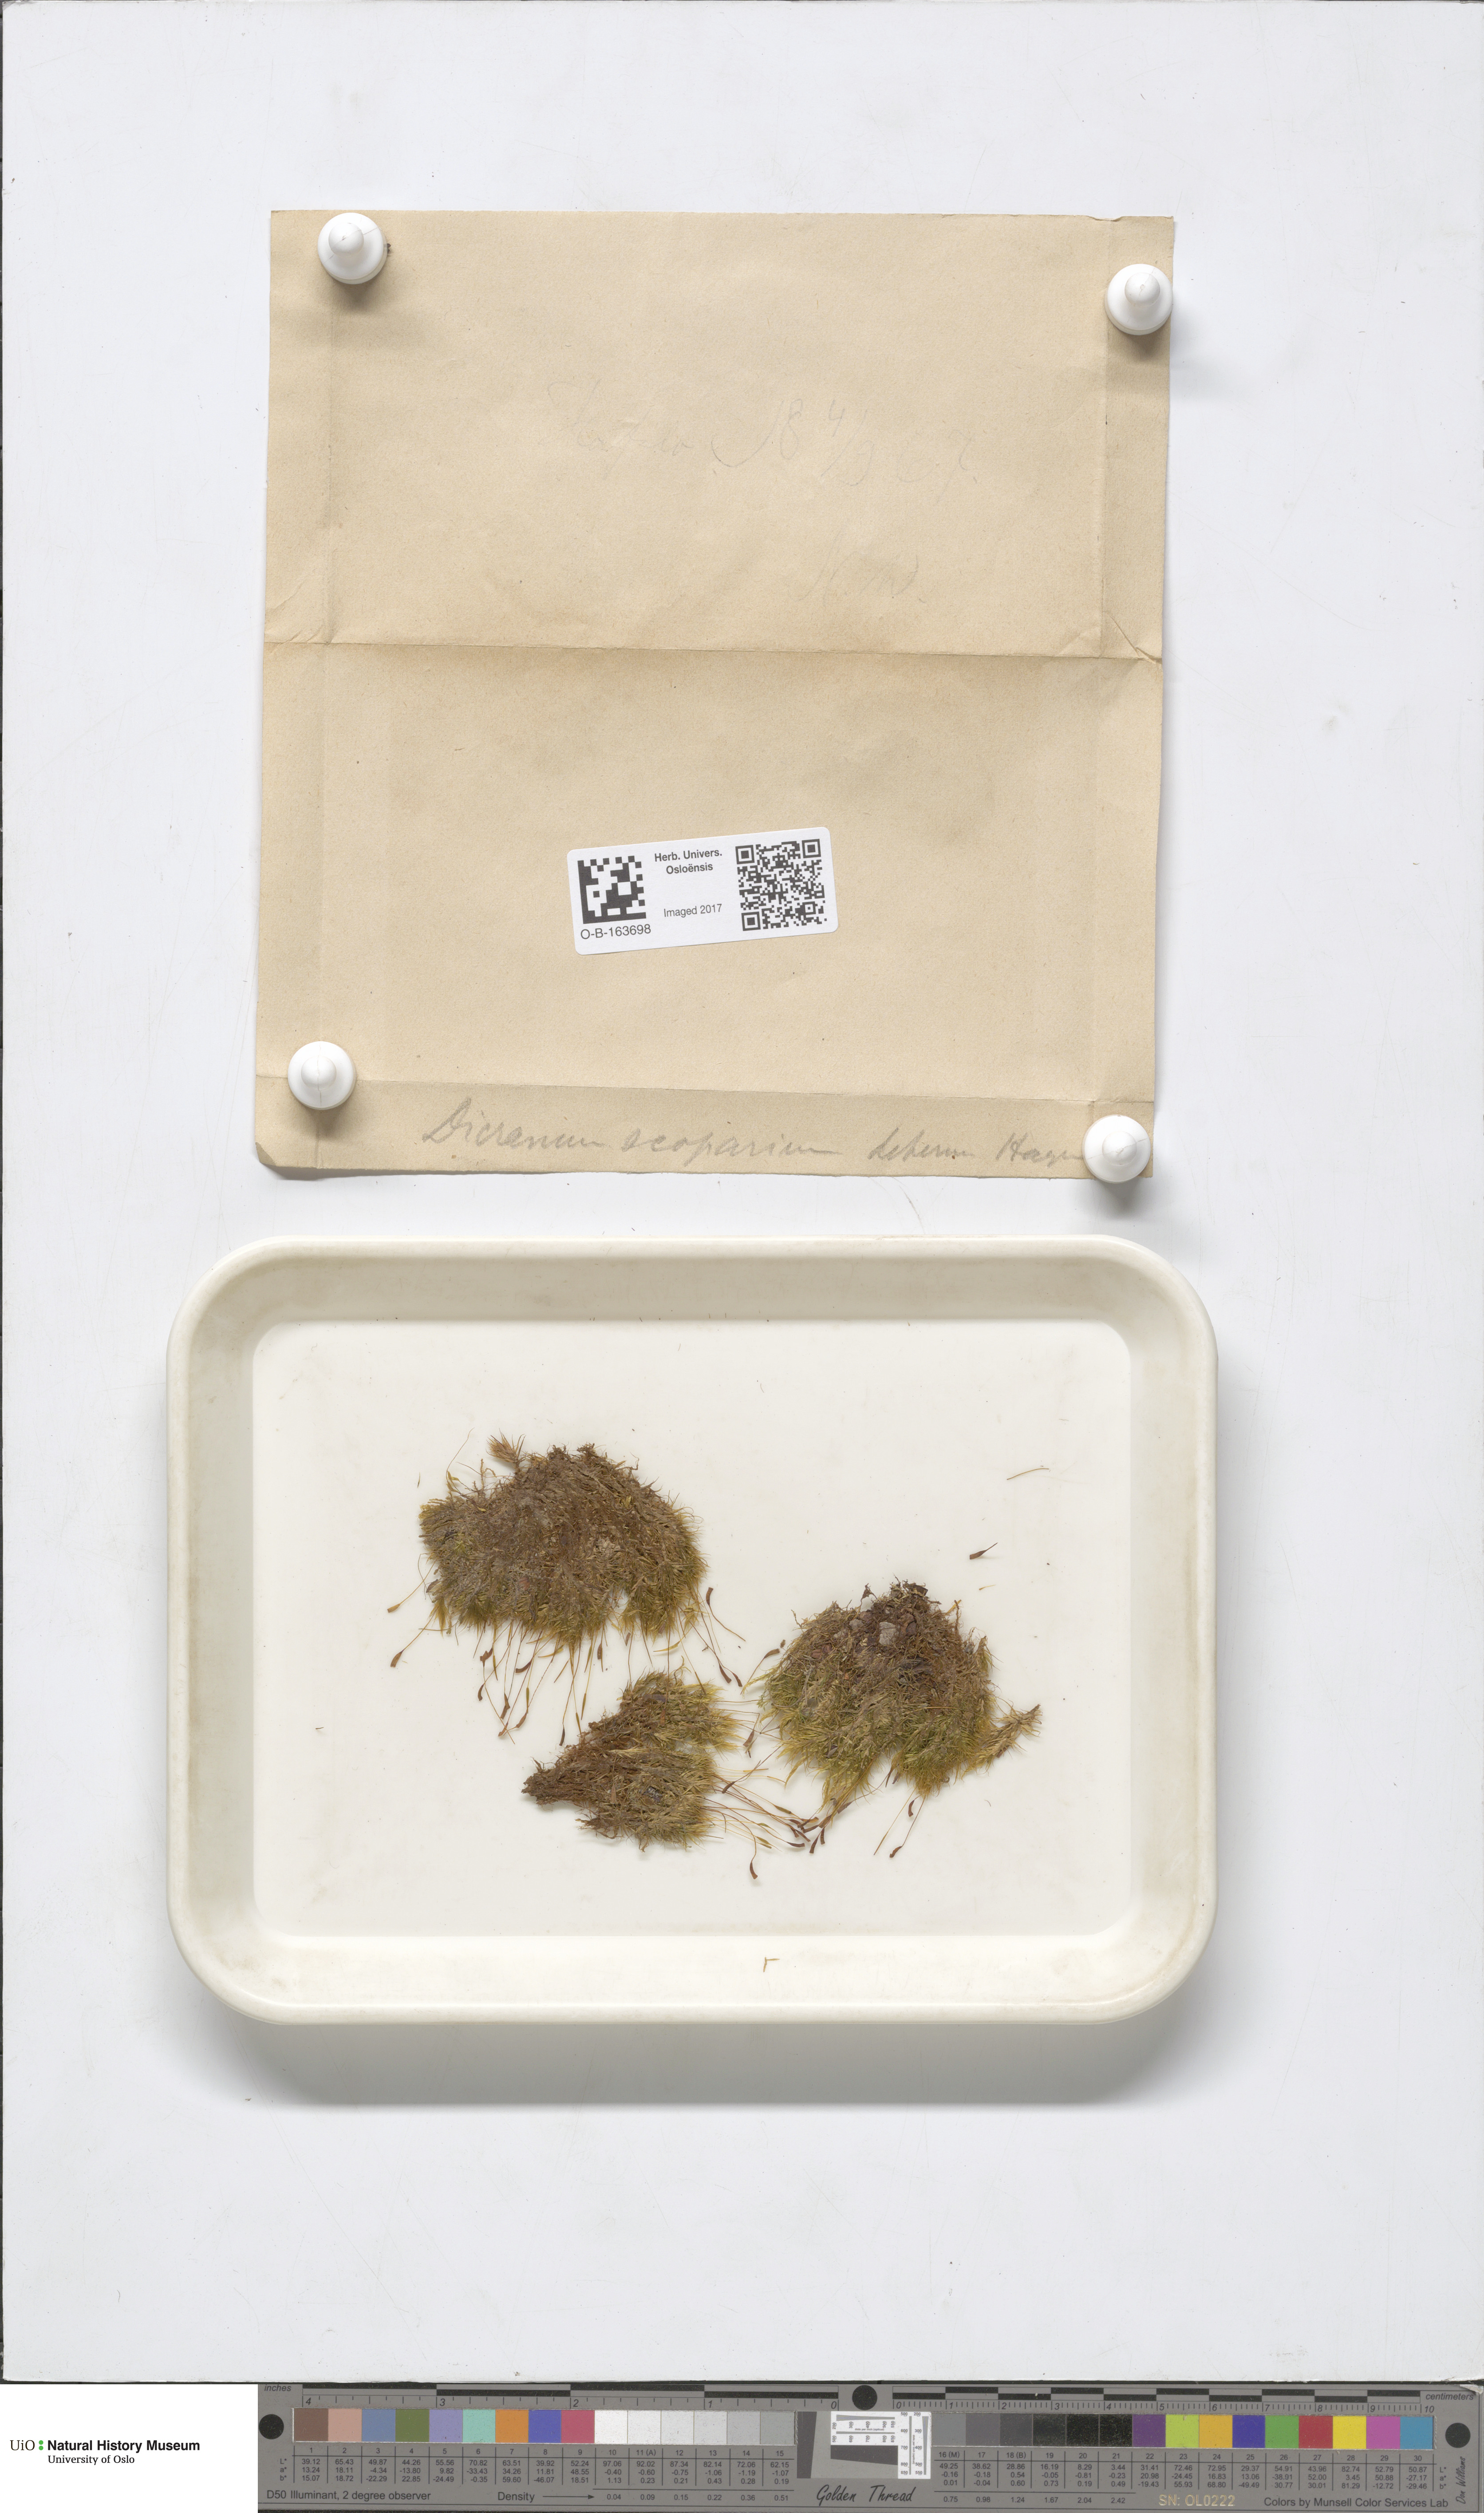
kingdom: Plantae
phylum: Bryophyta
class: Bryopsida
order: Dicranales
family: Dicranaceae
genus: Dicranum
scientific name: Dicranum scoparium
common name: Broom fork-moss
